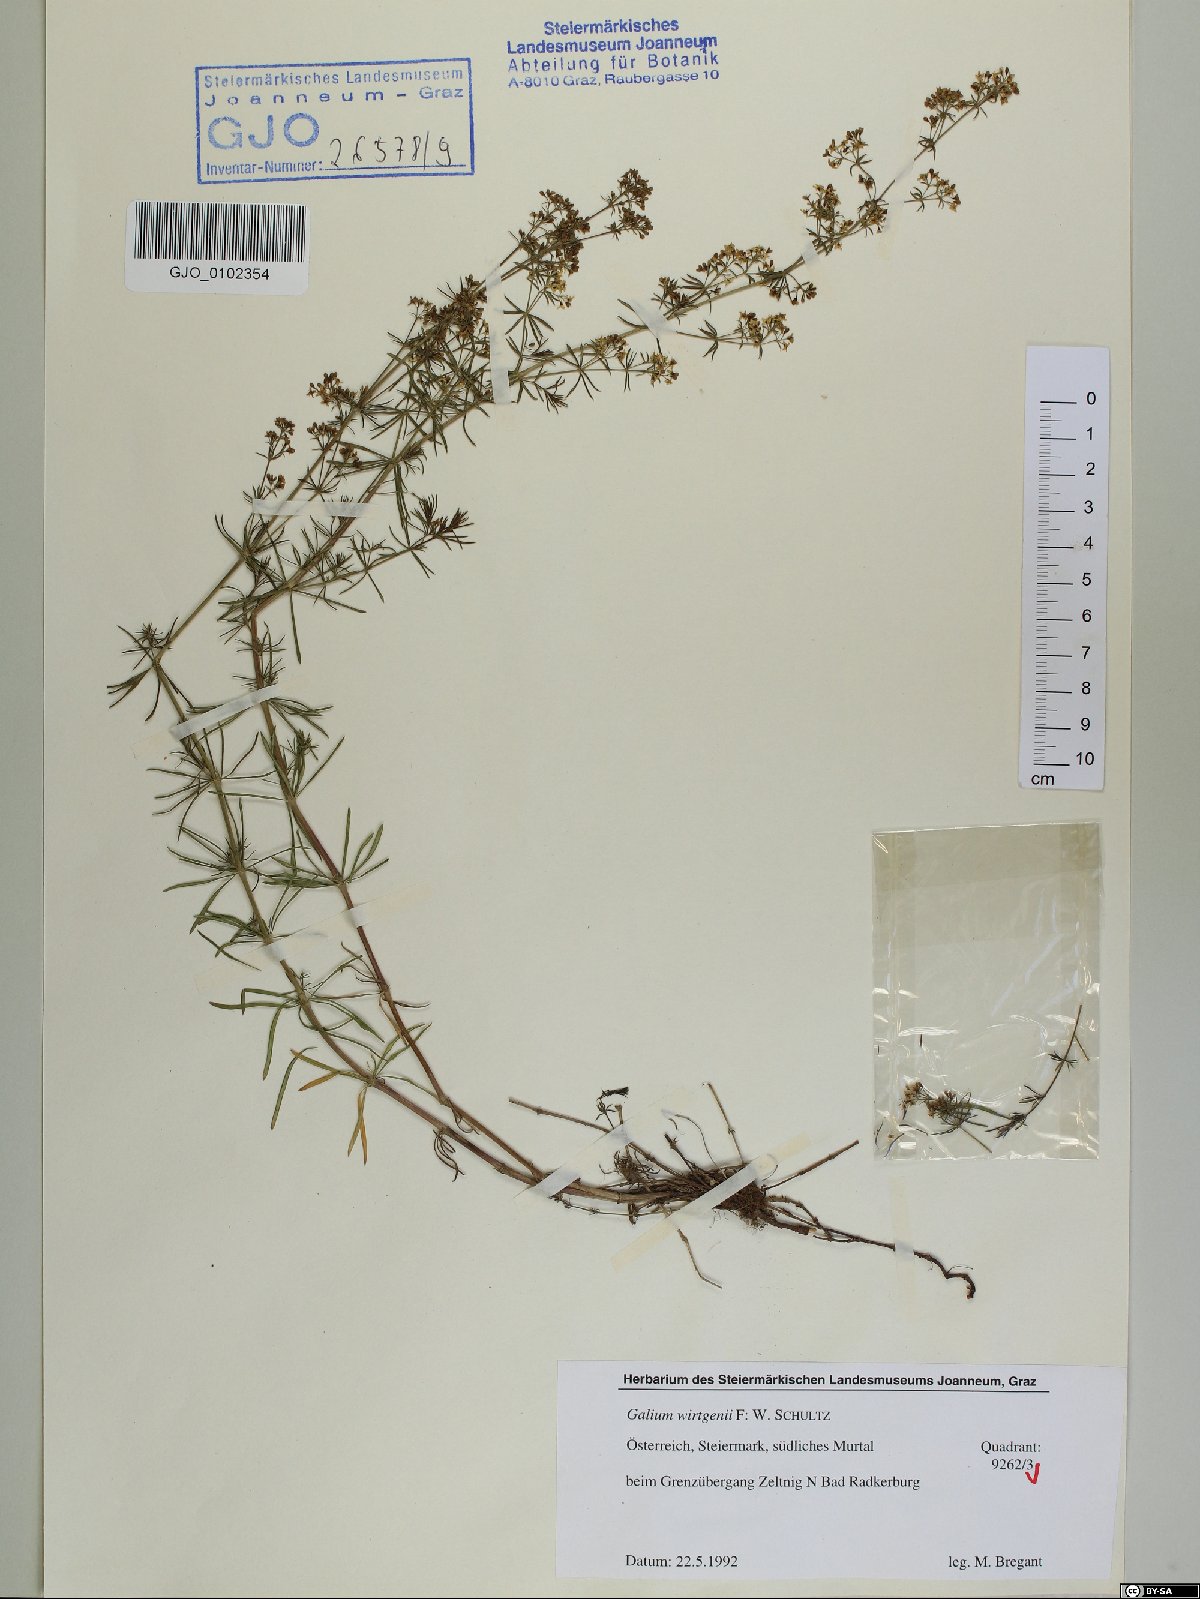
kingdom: Plantae
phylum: Tracheophyta
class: Magnoliopsida
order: Gentianales
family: Rubiaceae
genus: Galium
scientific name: Galium verum
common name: Lady's bedstraw
